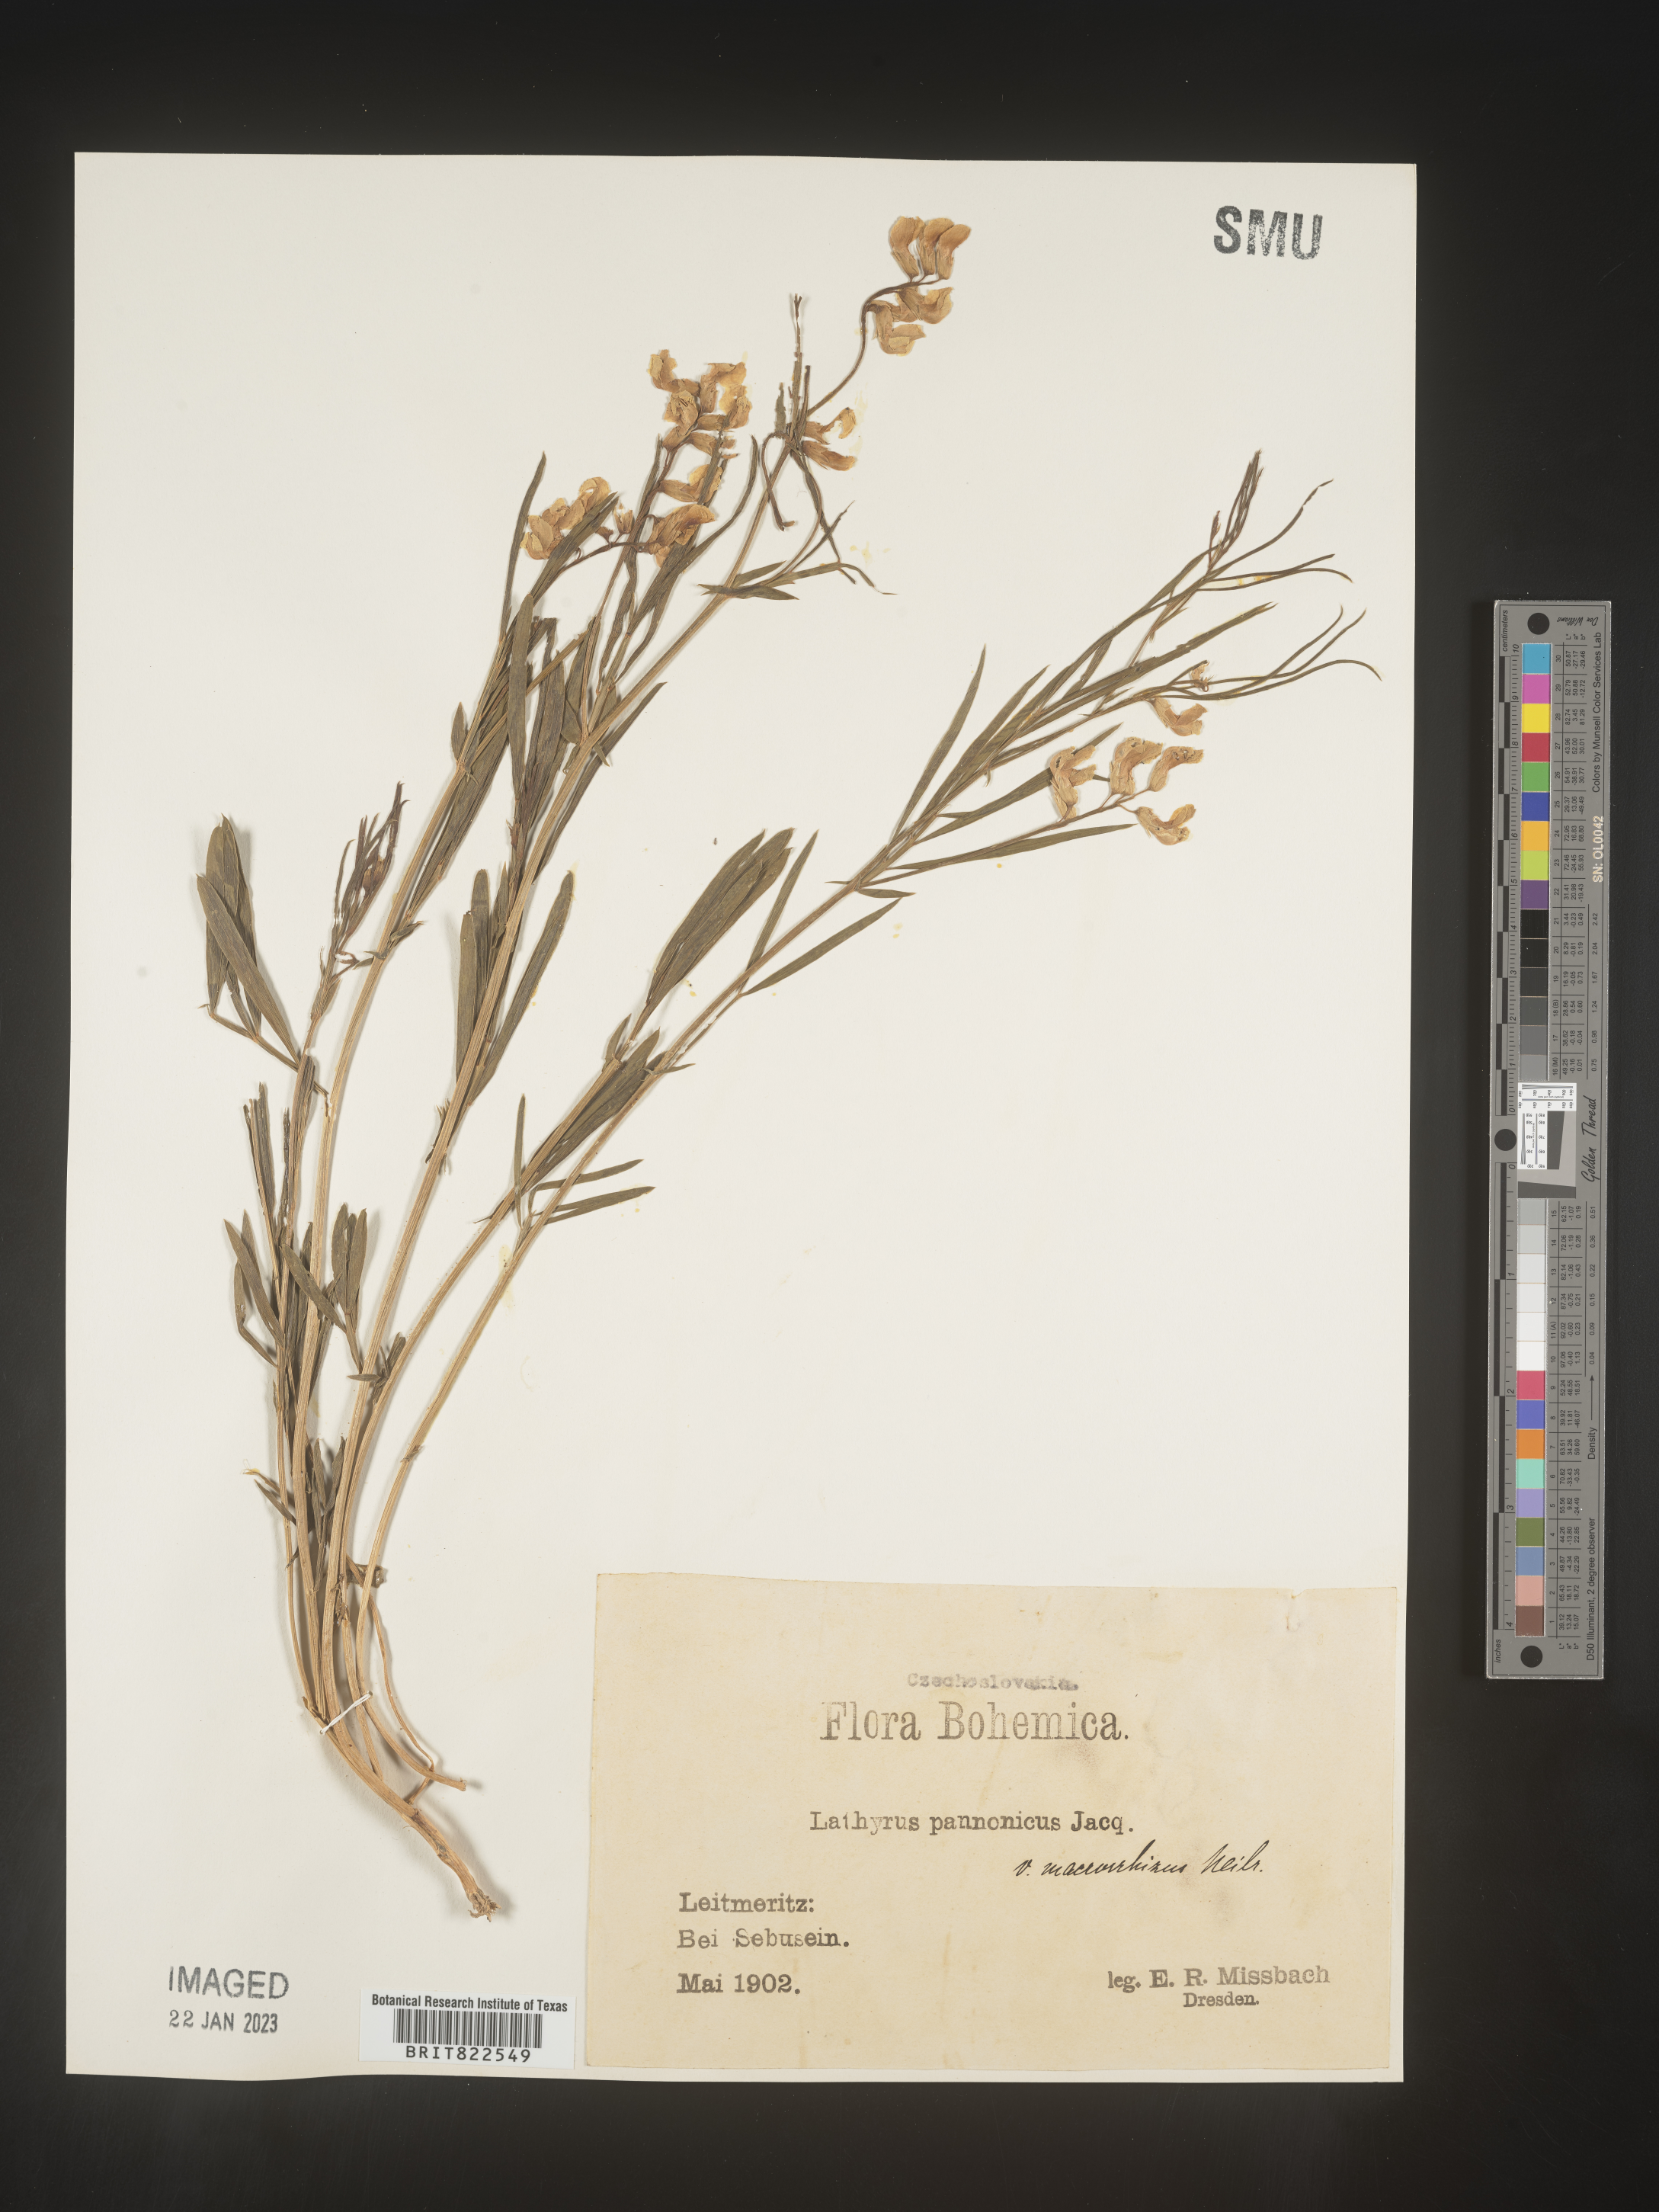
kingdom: Plantae
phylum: Tracheophyta
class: Magnoliopsida
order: Fabales
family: Fabaceae
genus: Lathyrus
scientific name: Lathyrus
